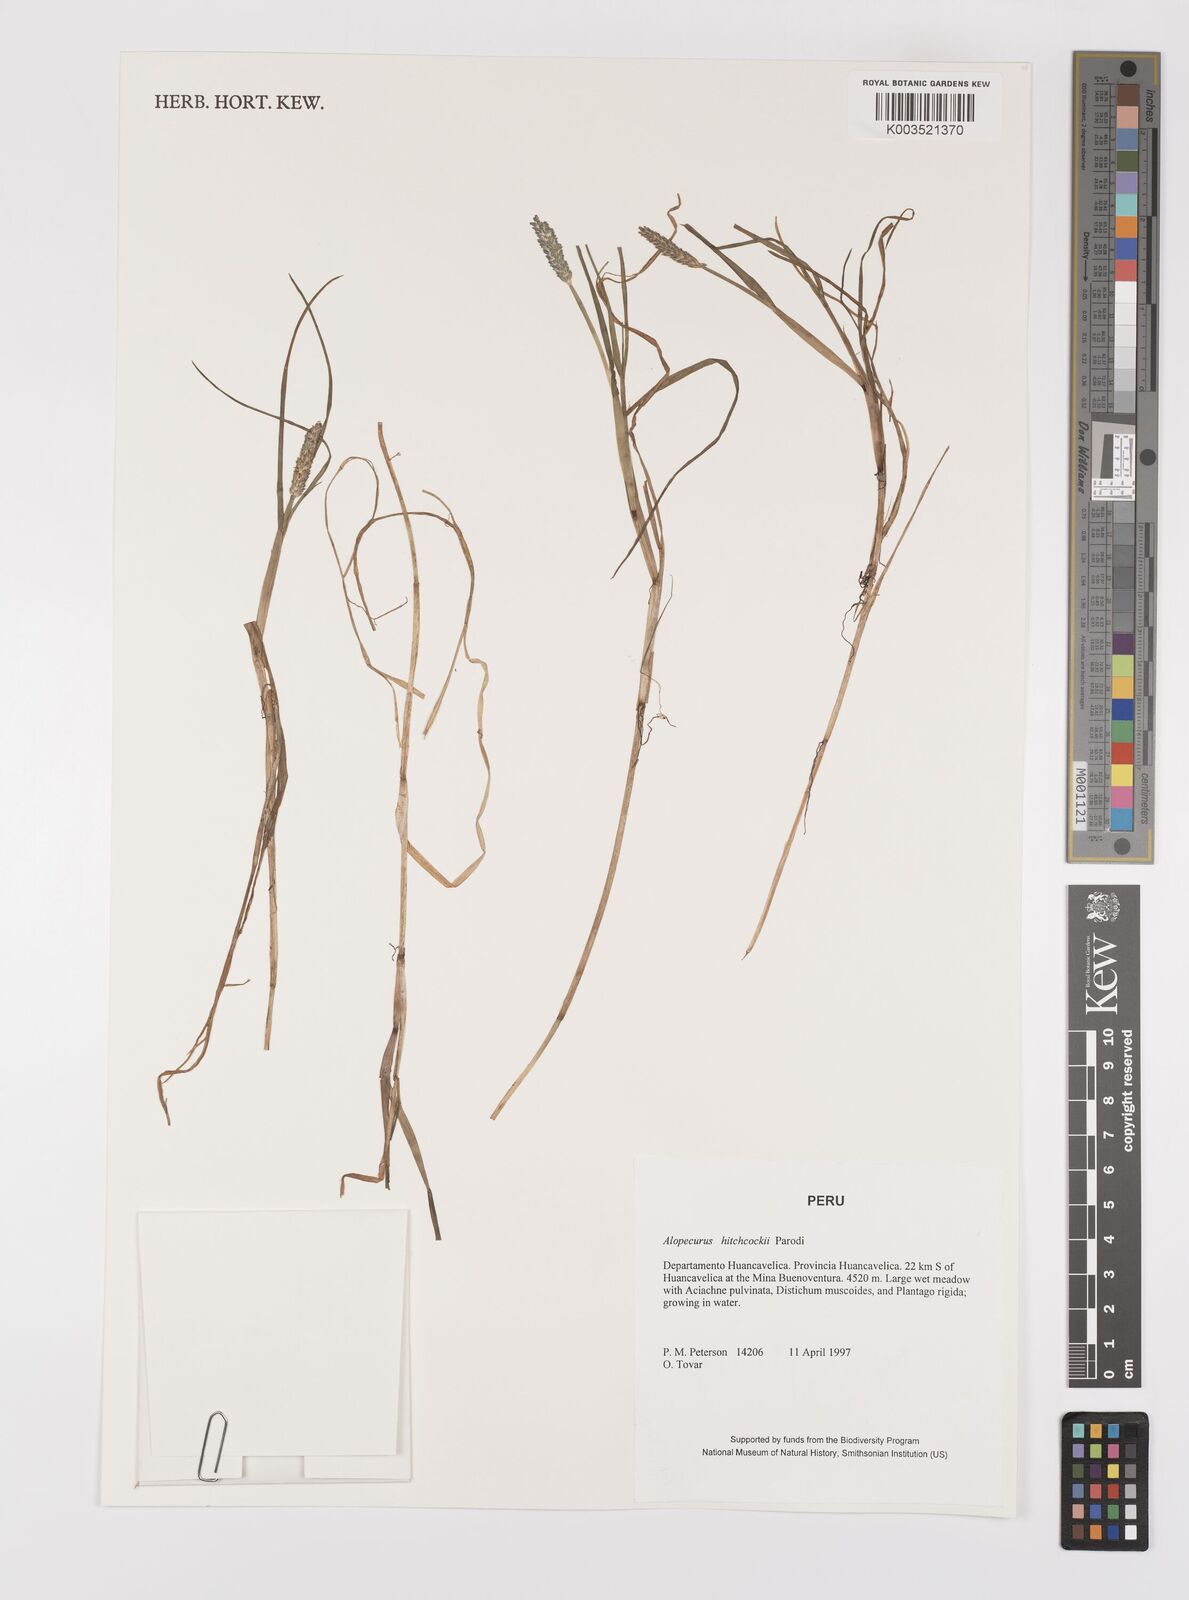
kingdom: Plantae
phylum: Tracheophyta
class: Liliopsida
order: Poales
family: Poaceae
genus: Alopecurus
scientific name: Alopecurus hitchcockii
